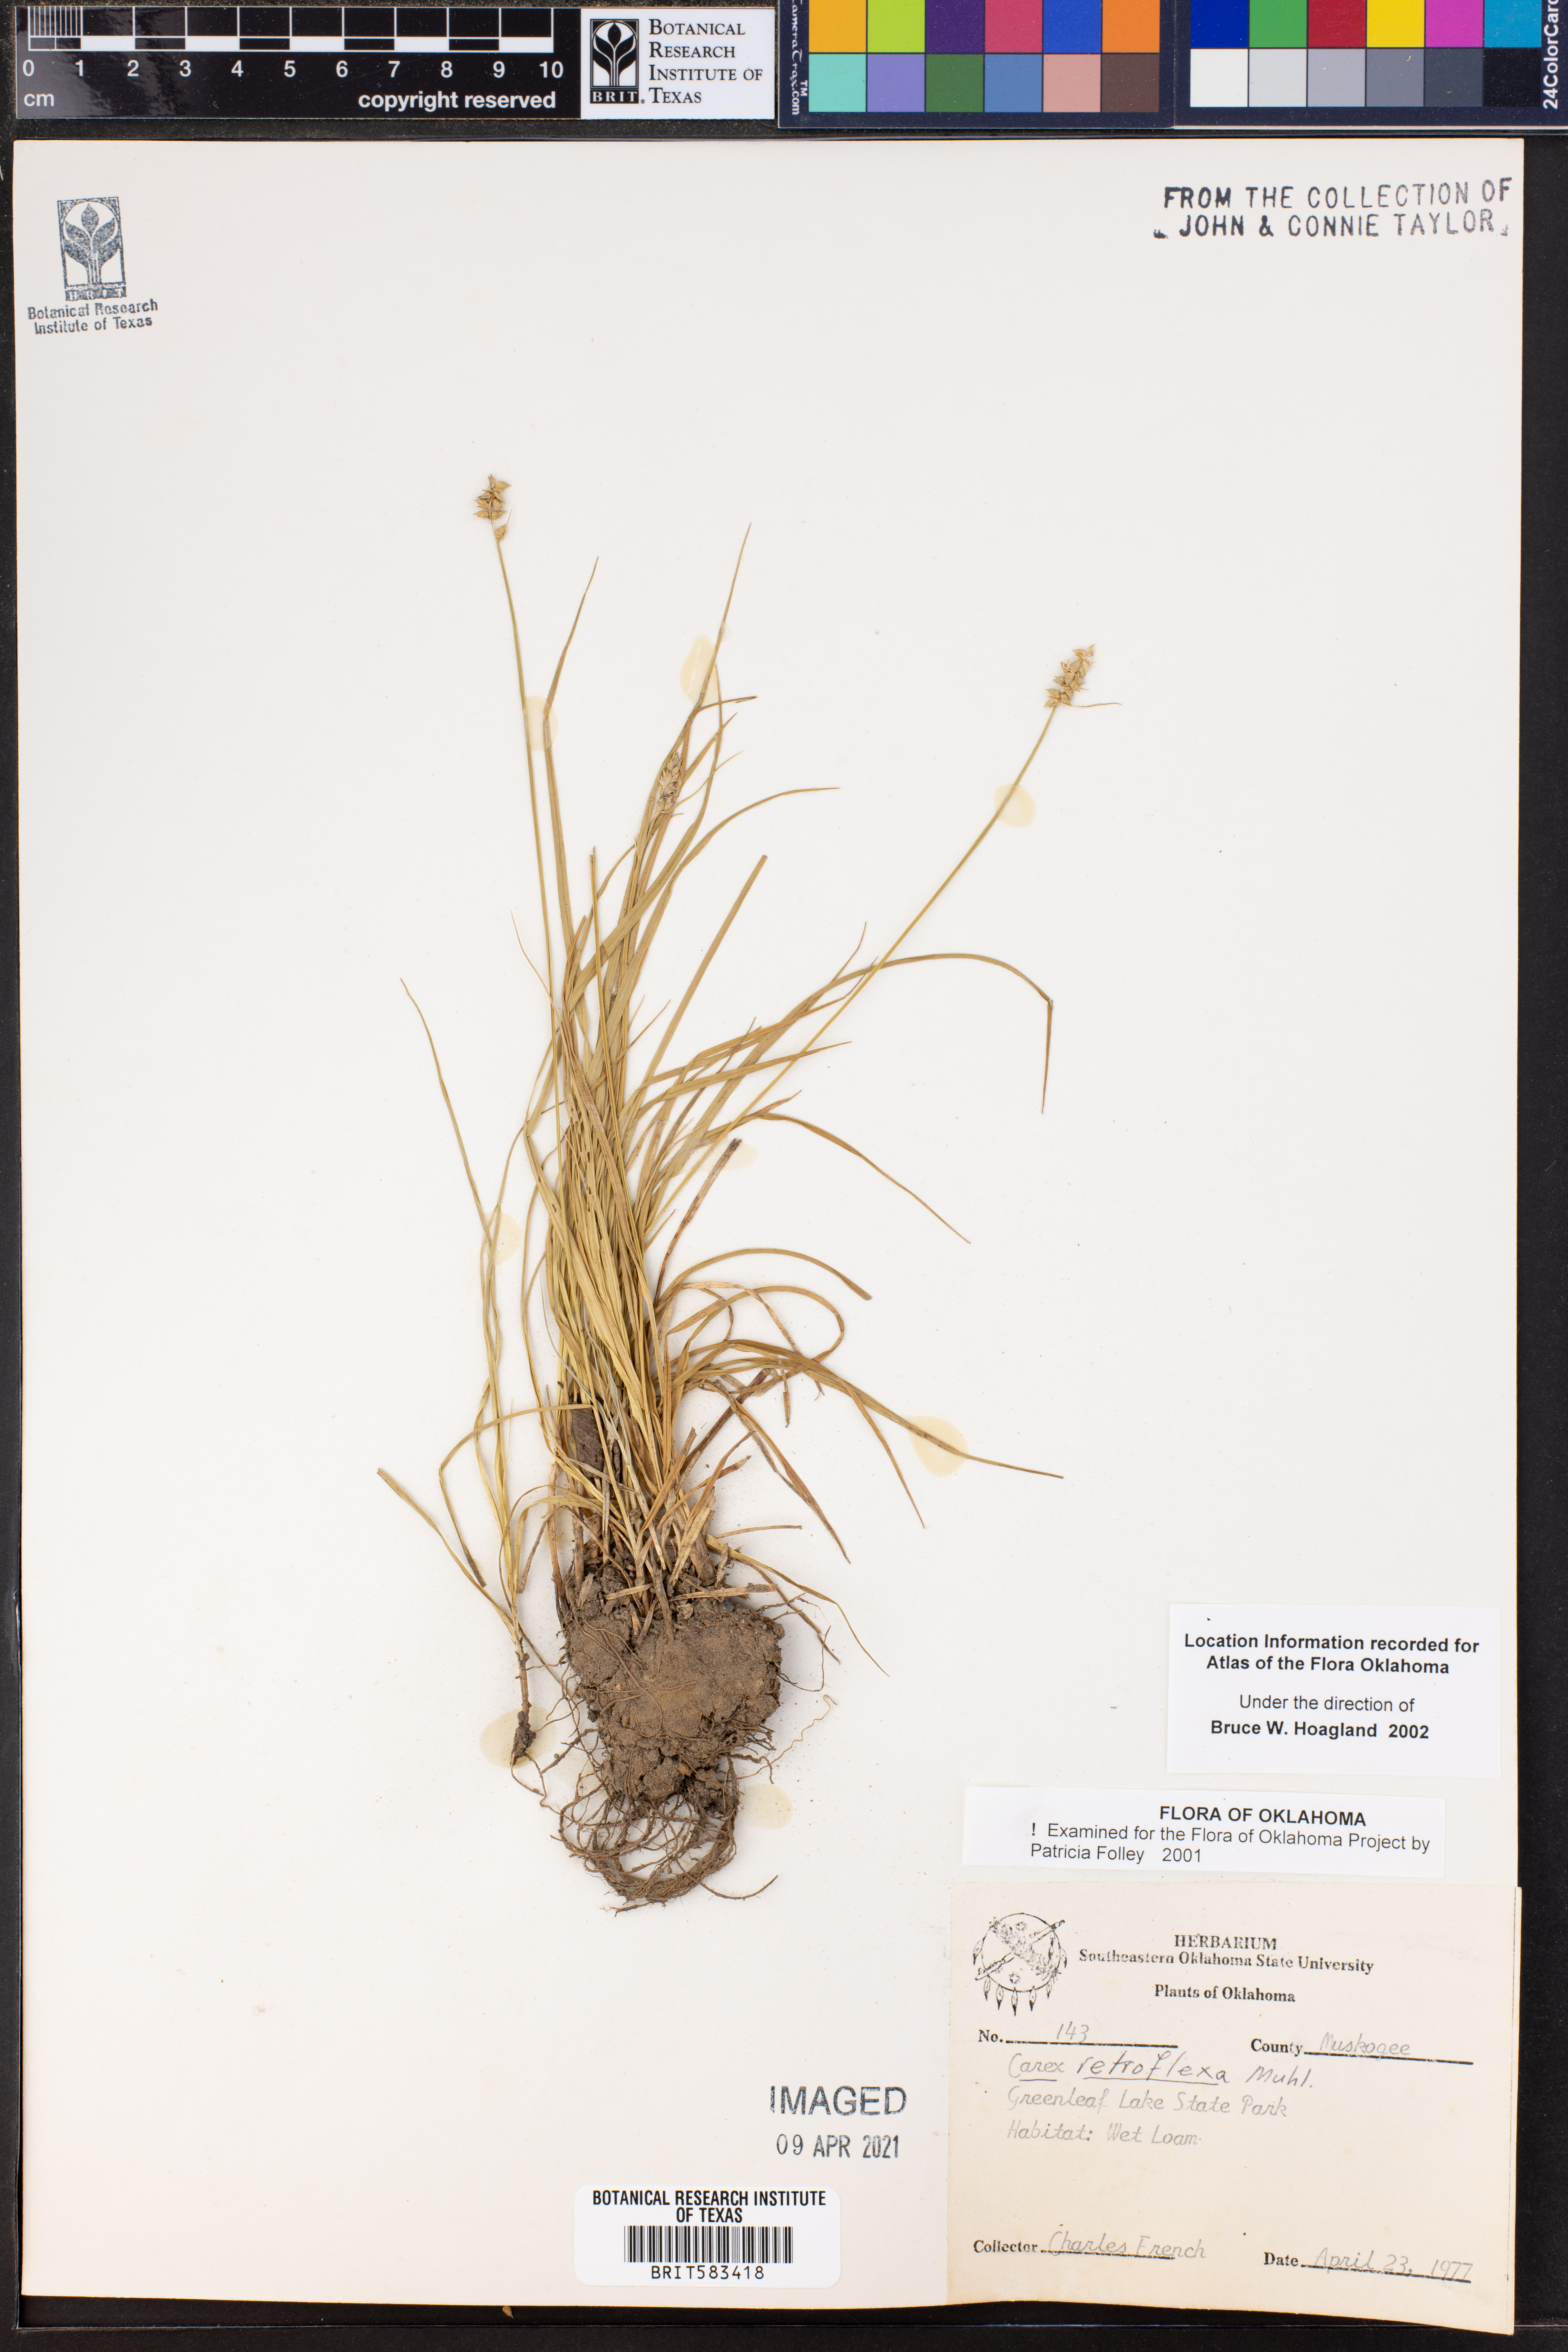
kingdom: Plantae
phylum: Tracheophyta
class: Liliopsida
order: Poales
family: Cyperaceae
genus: Carex
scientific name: Carex retroflexa
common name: Reflexed sedge
